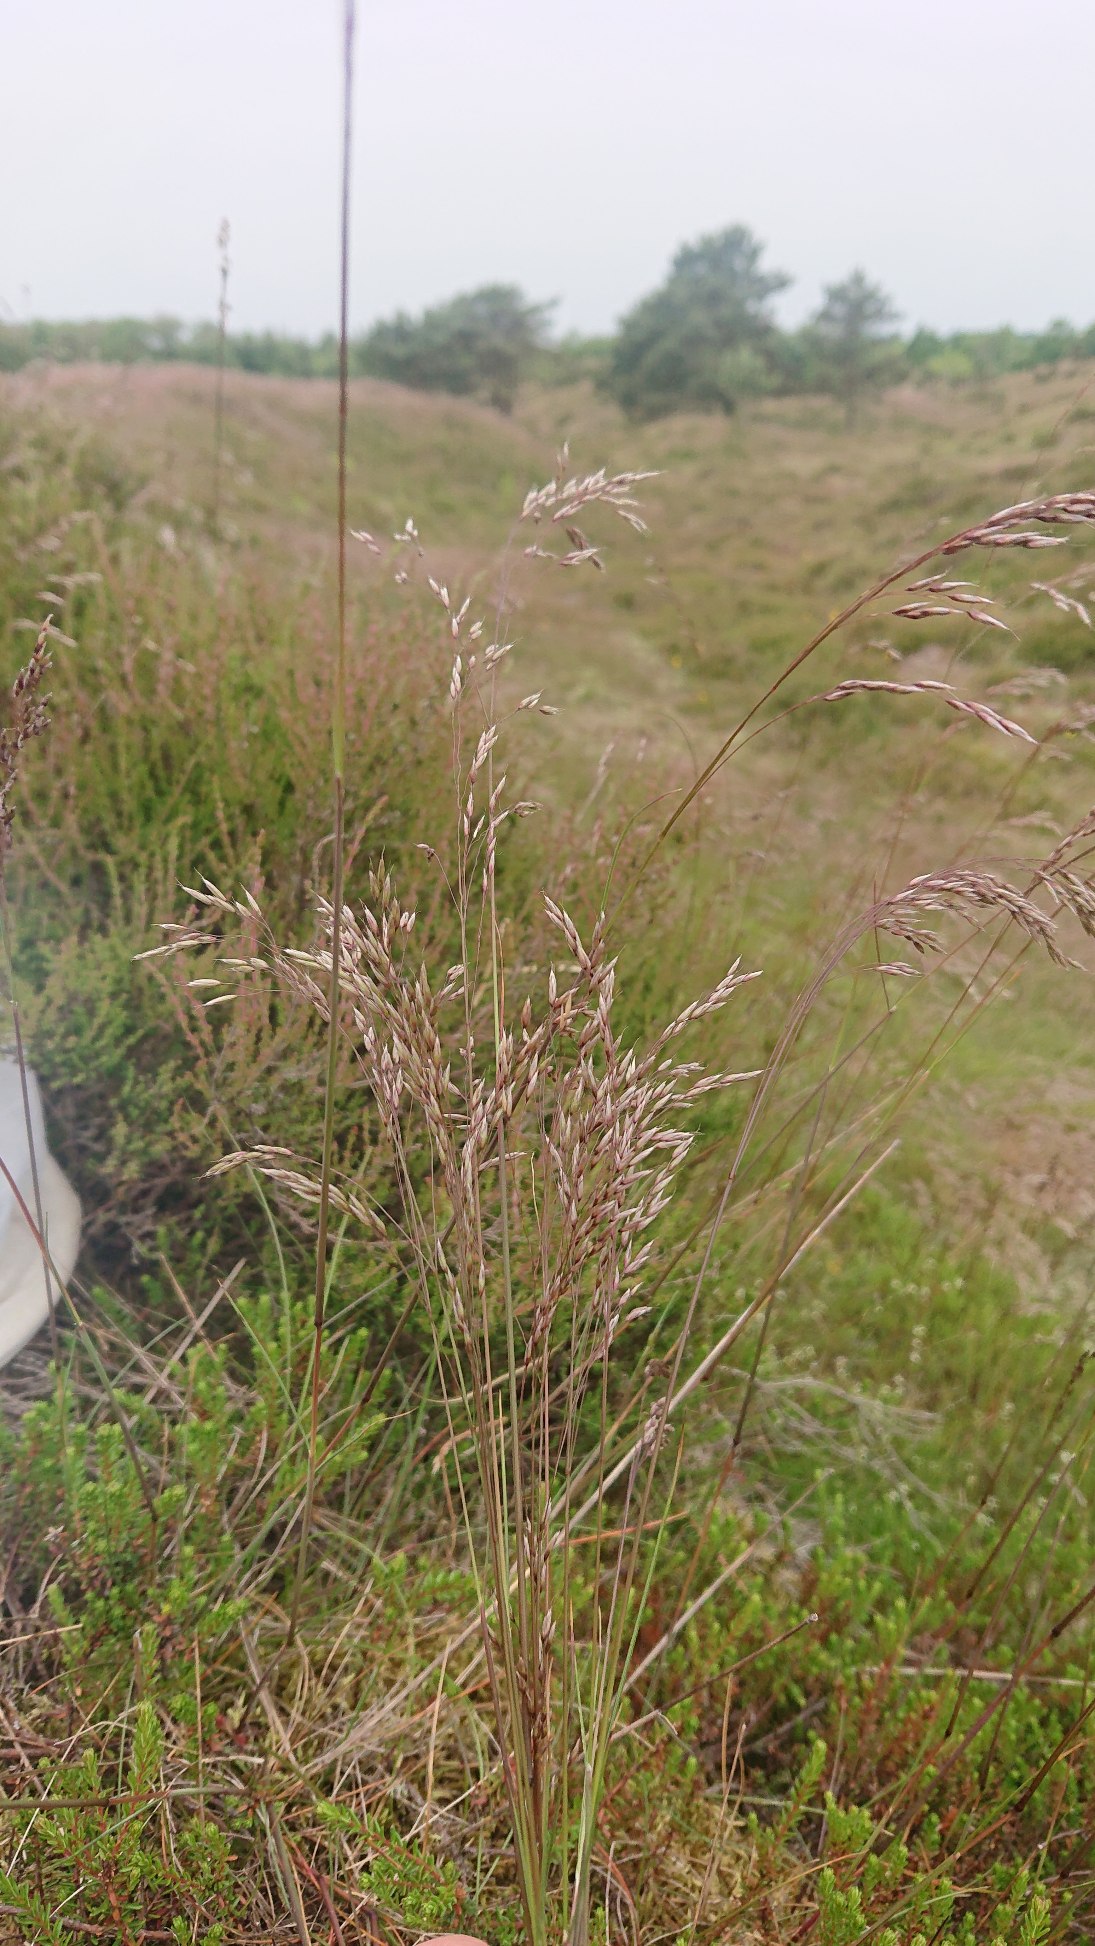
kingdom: Plantae
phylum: Tracheophyta
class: Liliopsida
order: Poales
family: Poaceae
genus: Avenella
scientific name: Avenella flexuosa
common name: Bølget bunke
